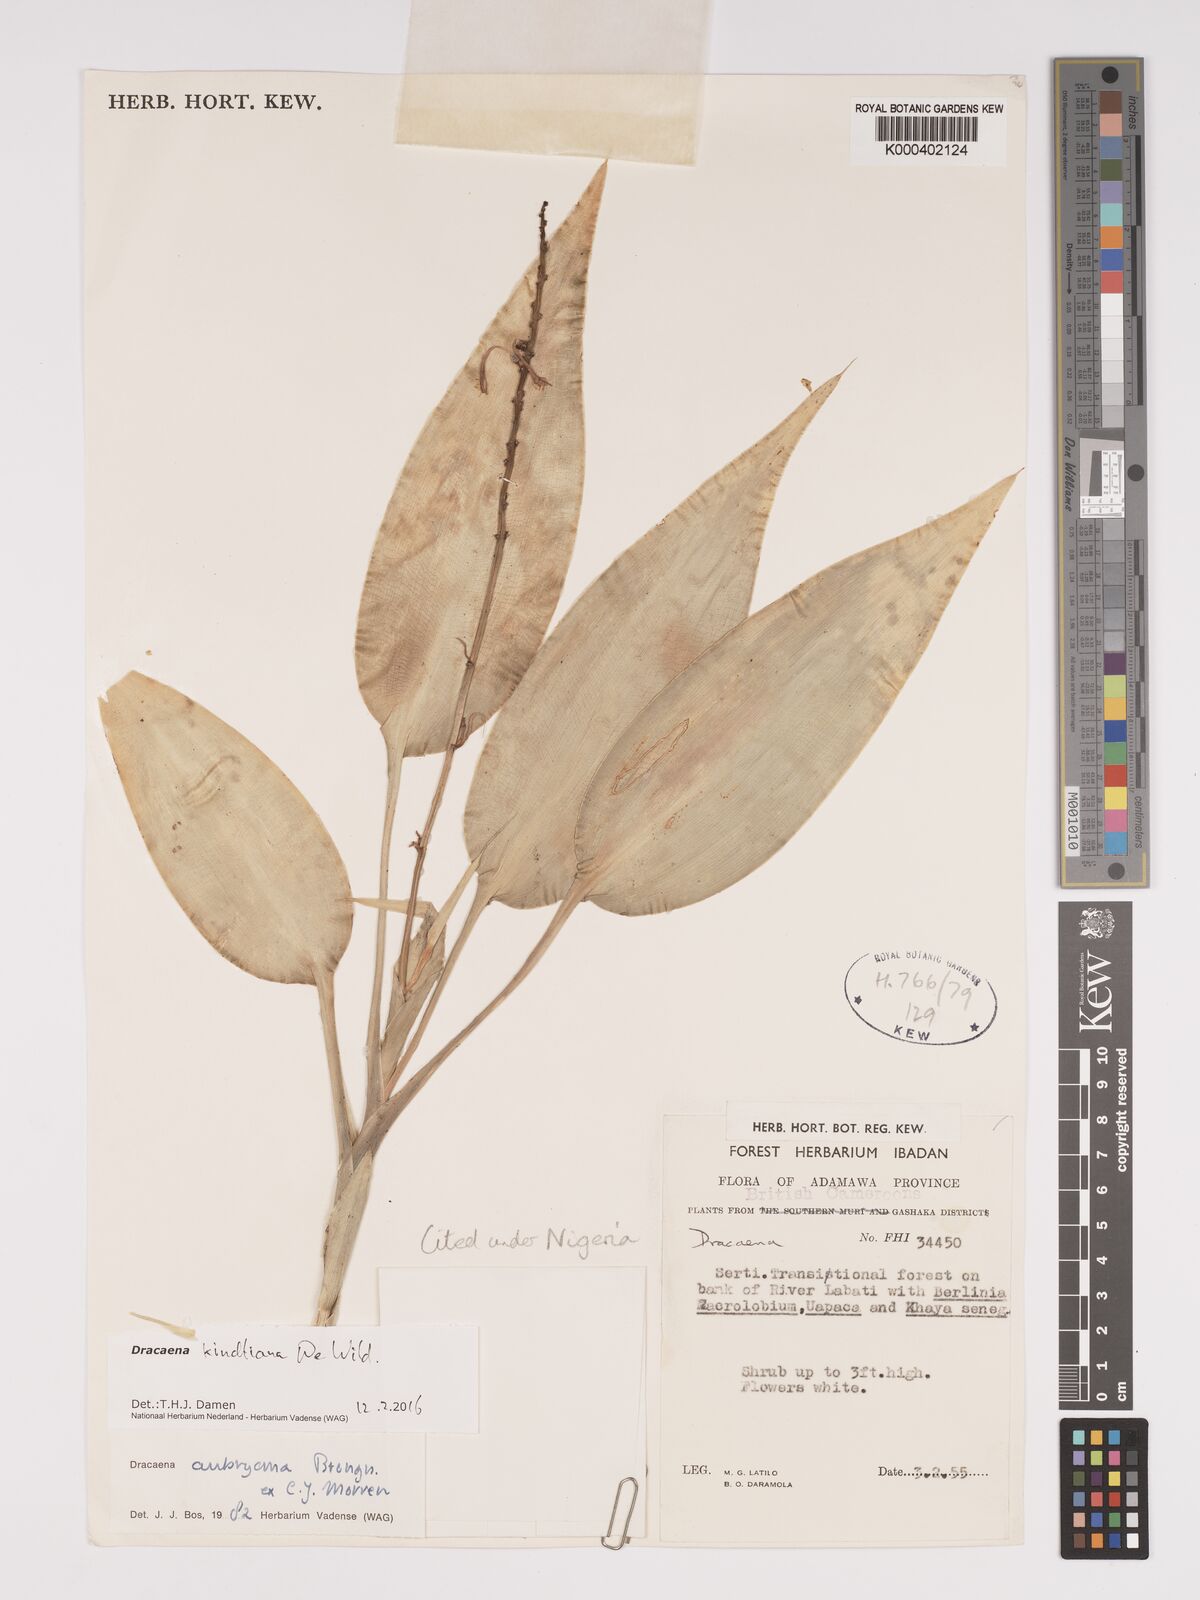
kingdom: Plantae
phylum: Tracheophyta
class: Liliopsida
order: Asparagales
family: Asparagaceae
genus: Dracaena
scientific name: Dracaena kindtiana
